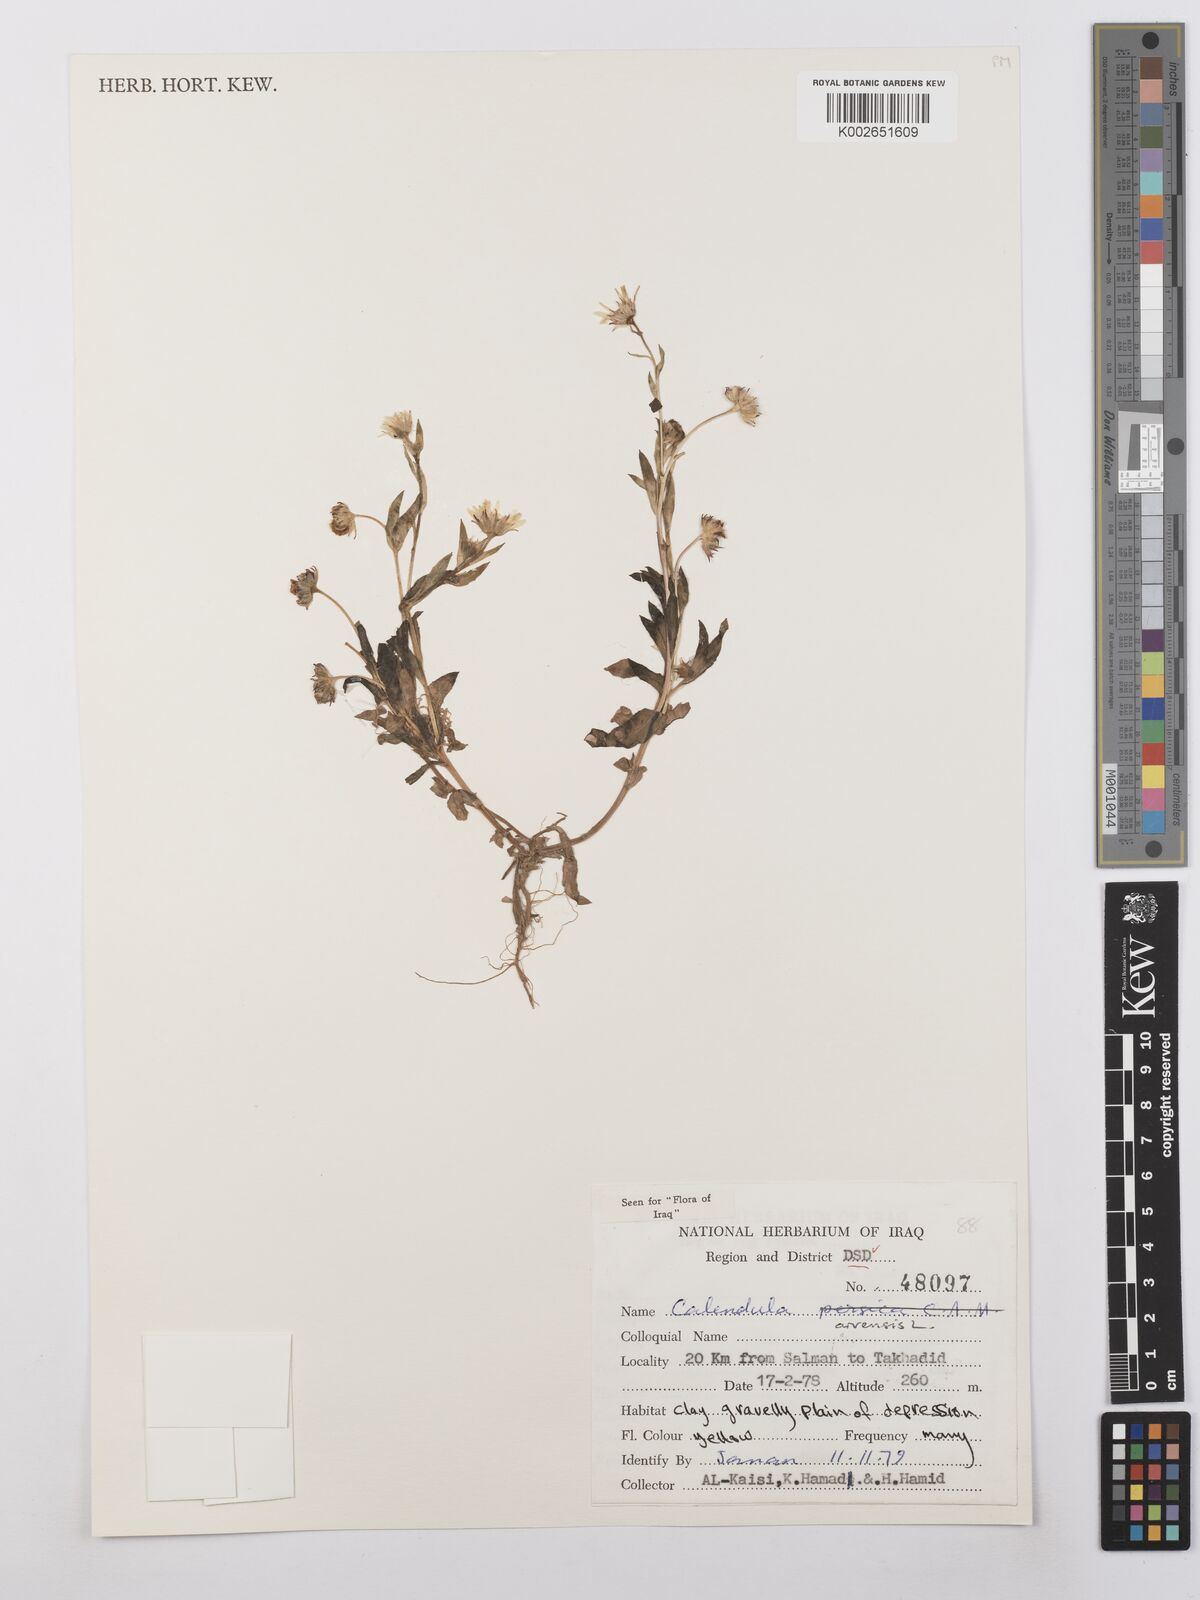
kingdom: Plantae
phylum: Tracheophyta
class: Magnoliopsida
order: Asterales
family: Asteraceae
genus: Calendula
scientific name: Calendula arvensis
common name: Field marigold
